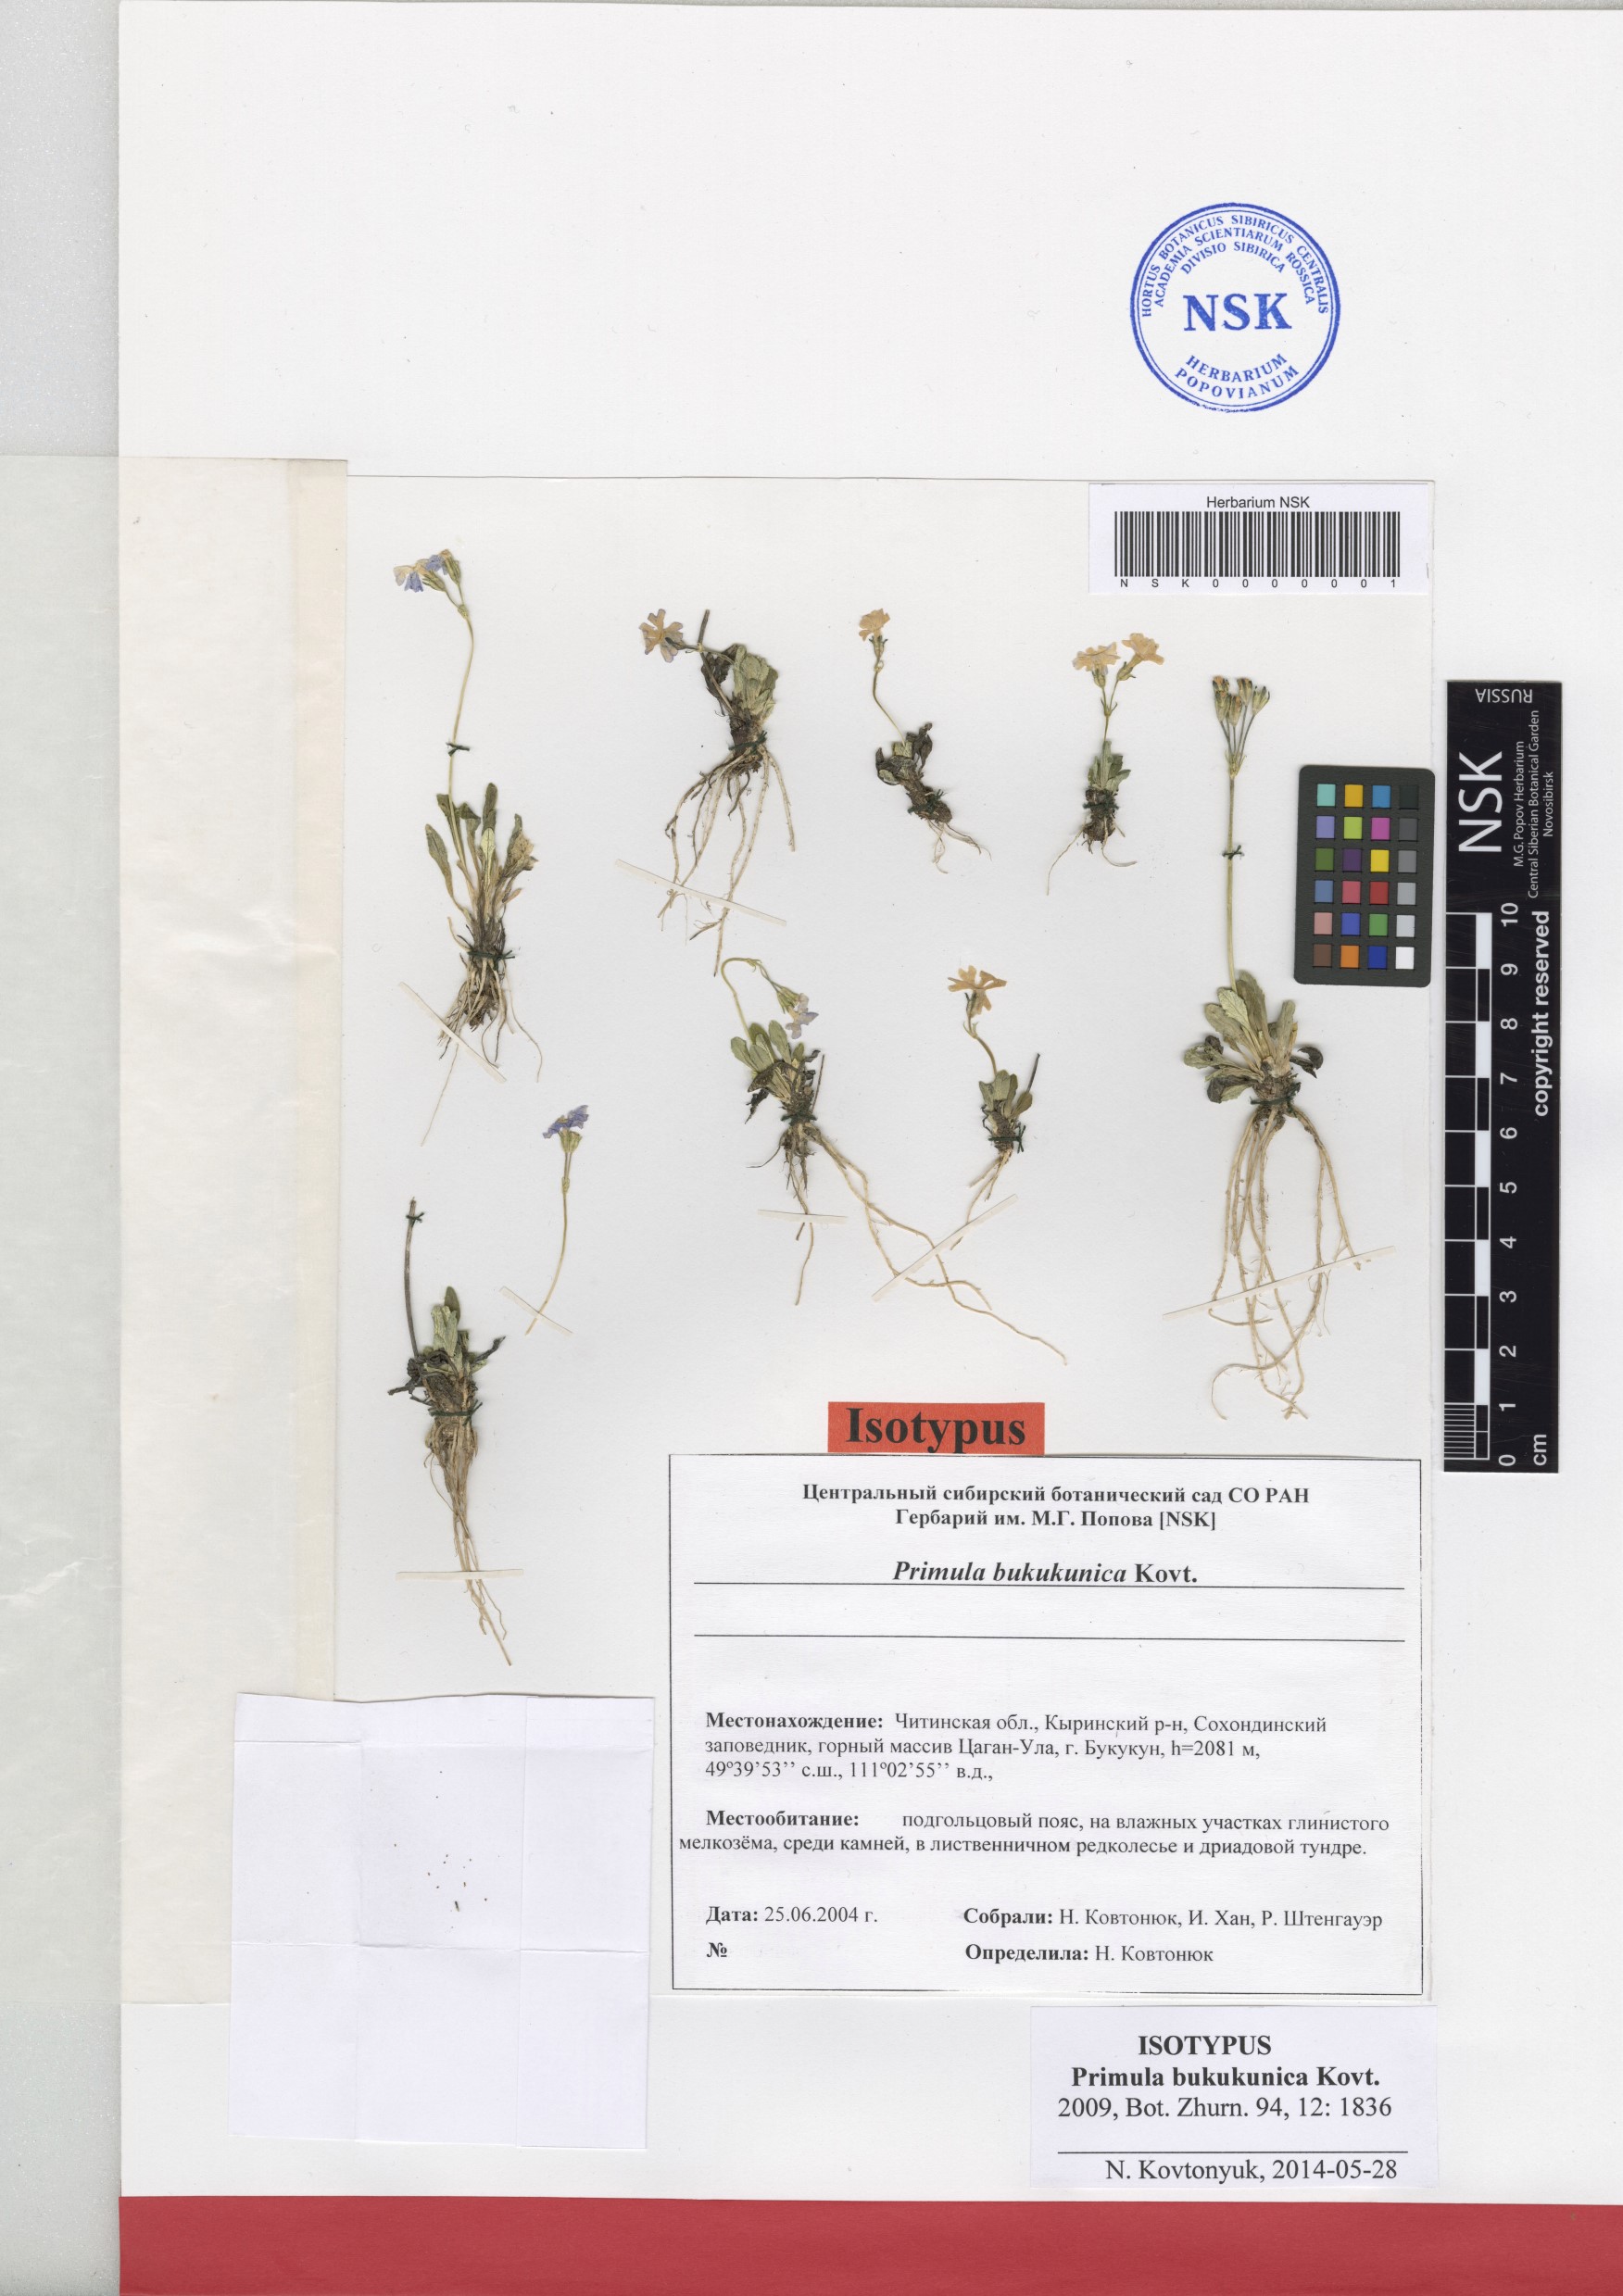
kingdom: Plantae
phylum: Tracheophyta
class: Magnoliopsida
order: Ericales
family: Primulaceae
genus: Primula
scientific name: Primula bukukunica
